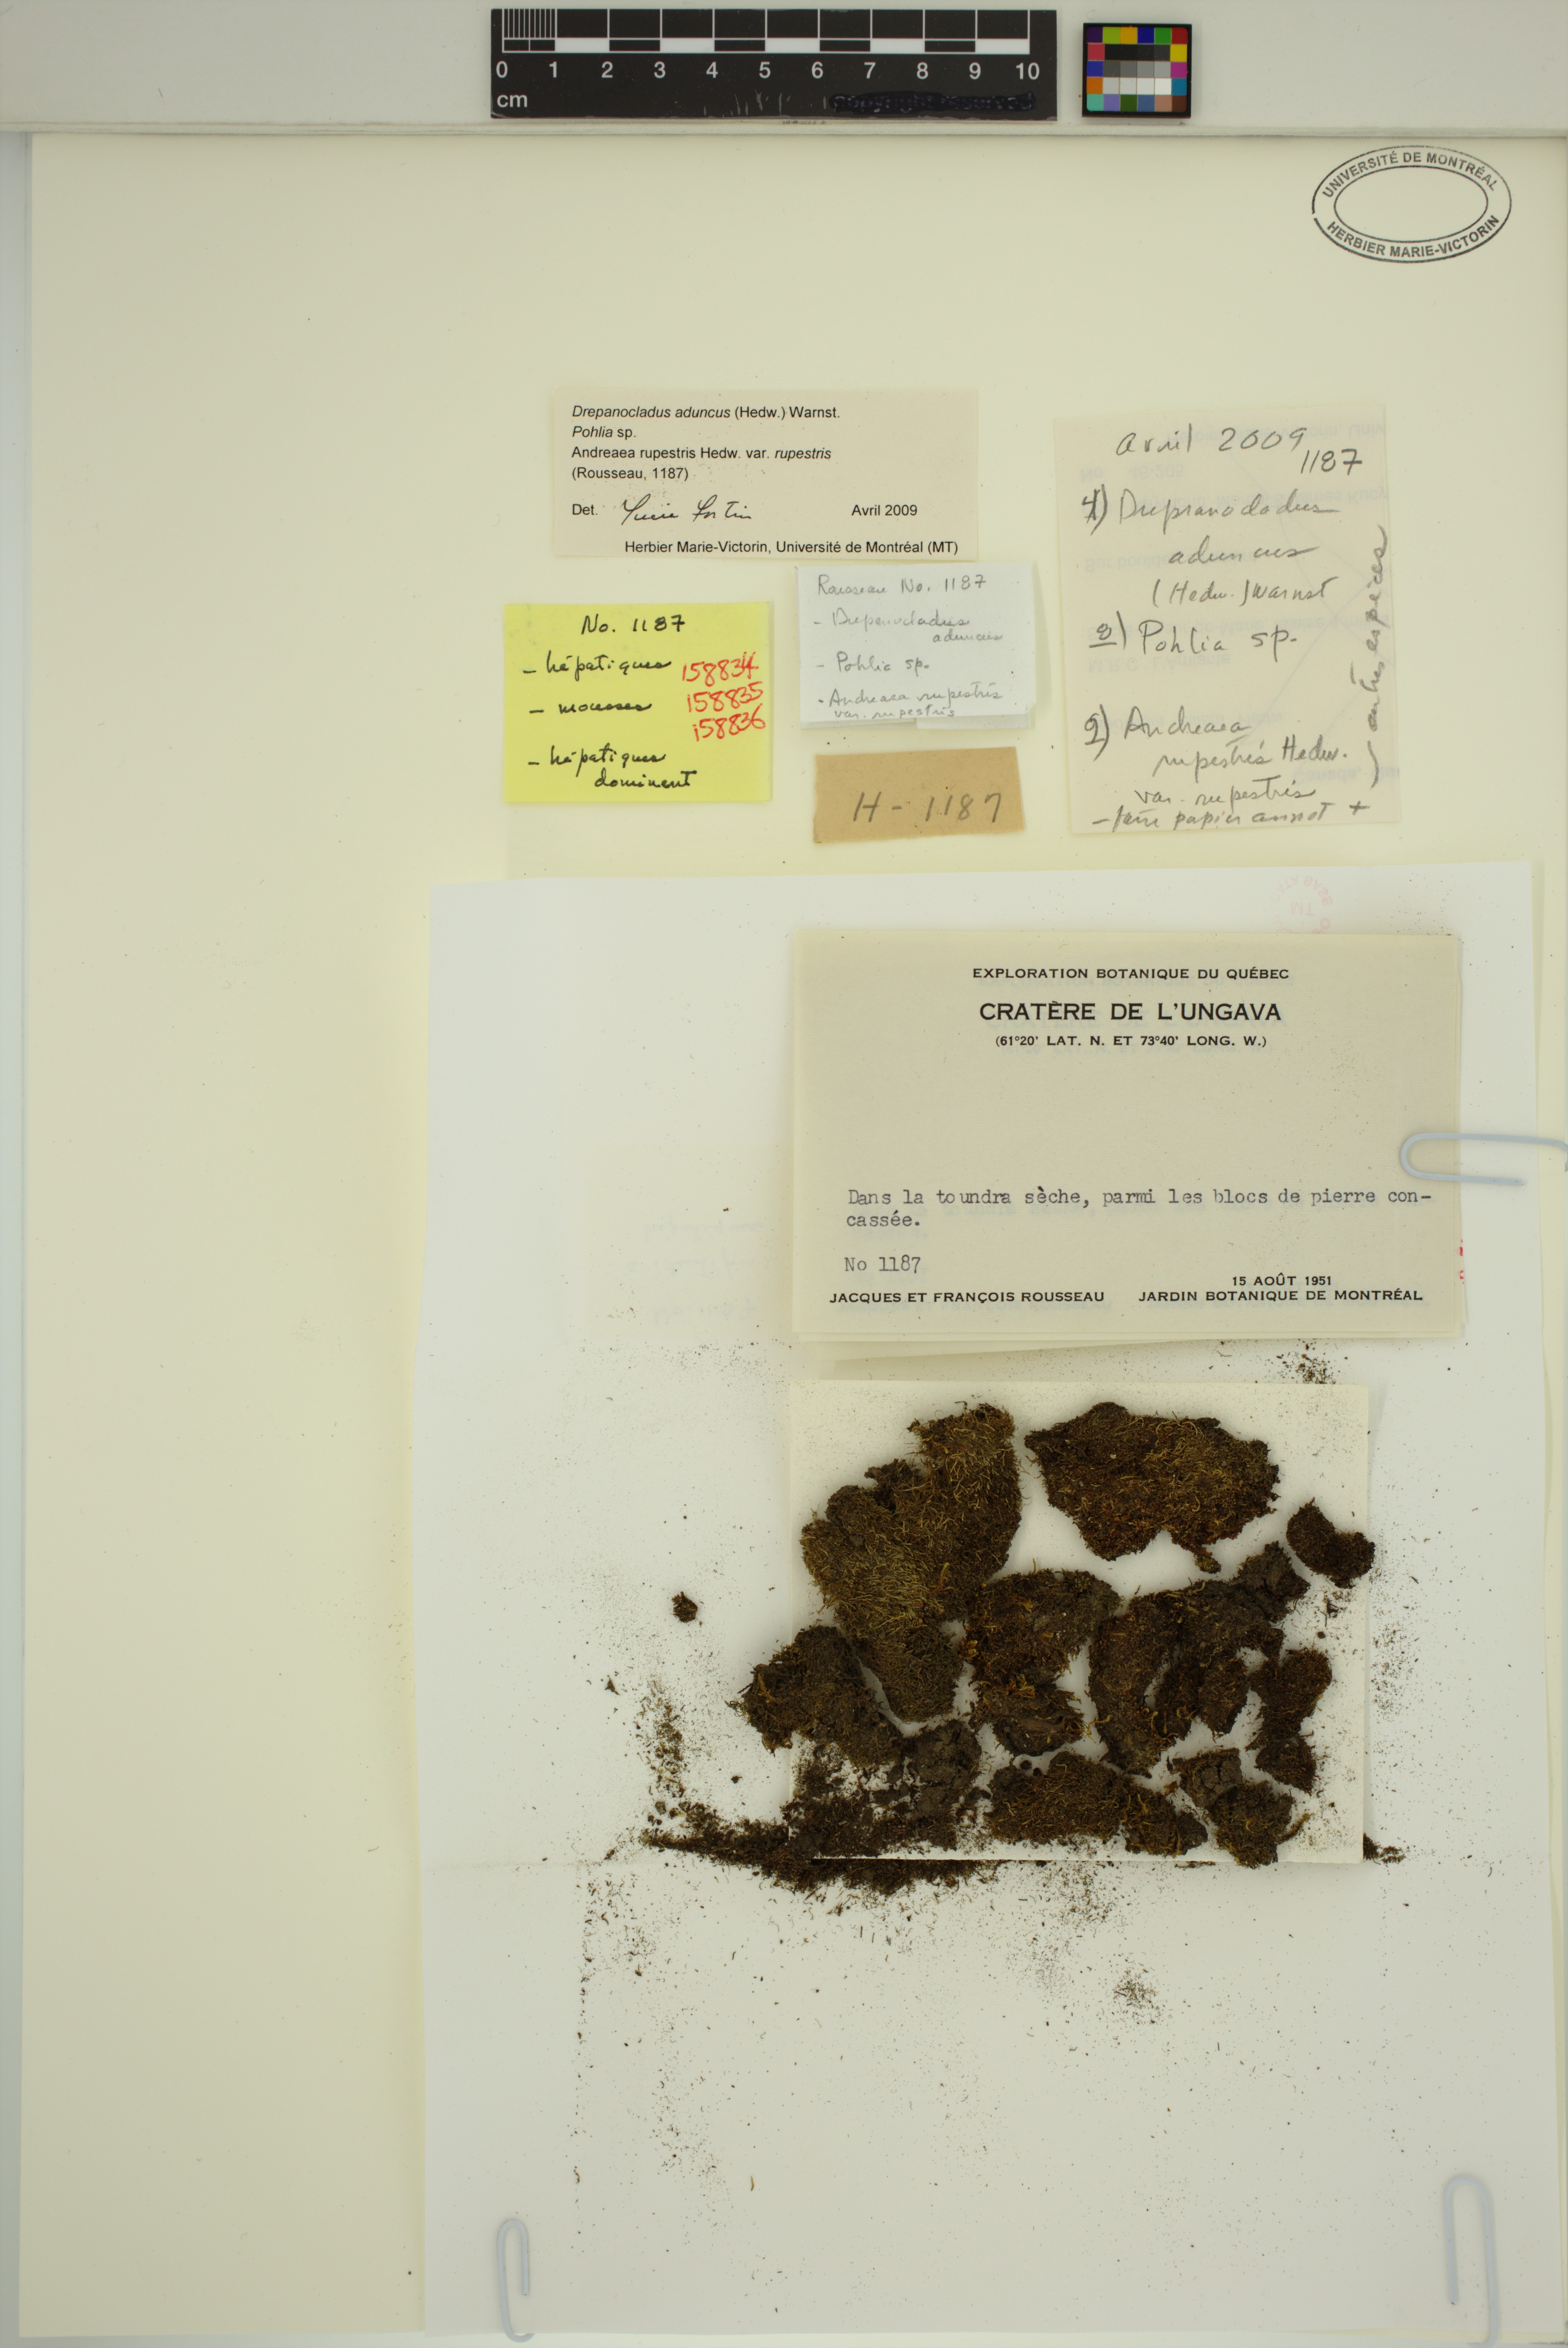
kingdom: Plantae
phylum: Bryophyta
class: Bryopsida
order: Hypnales
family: Amblystegiaceae
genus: Drepanocladus
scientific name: Drepanocladus aduncus
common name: Knieff's hook moss
